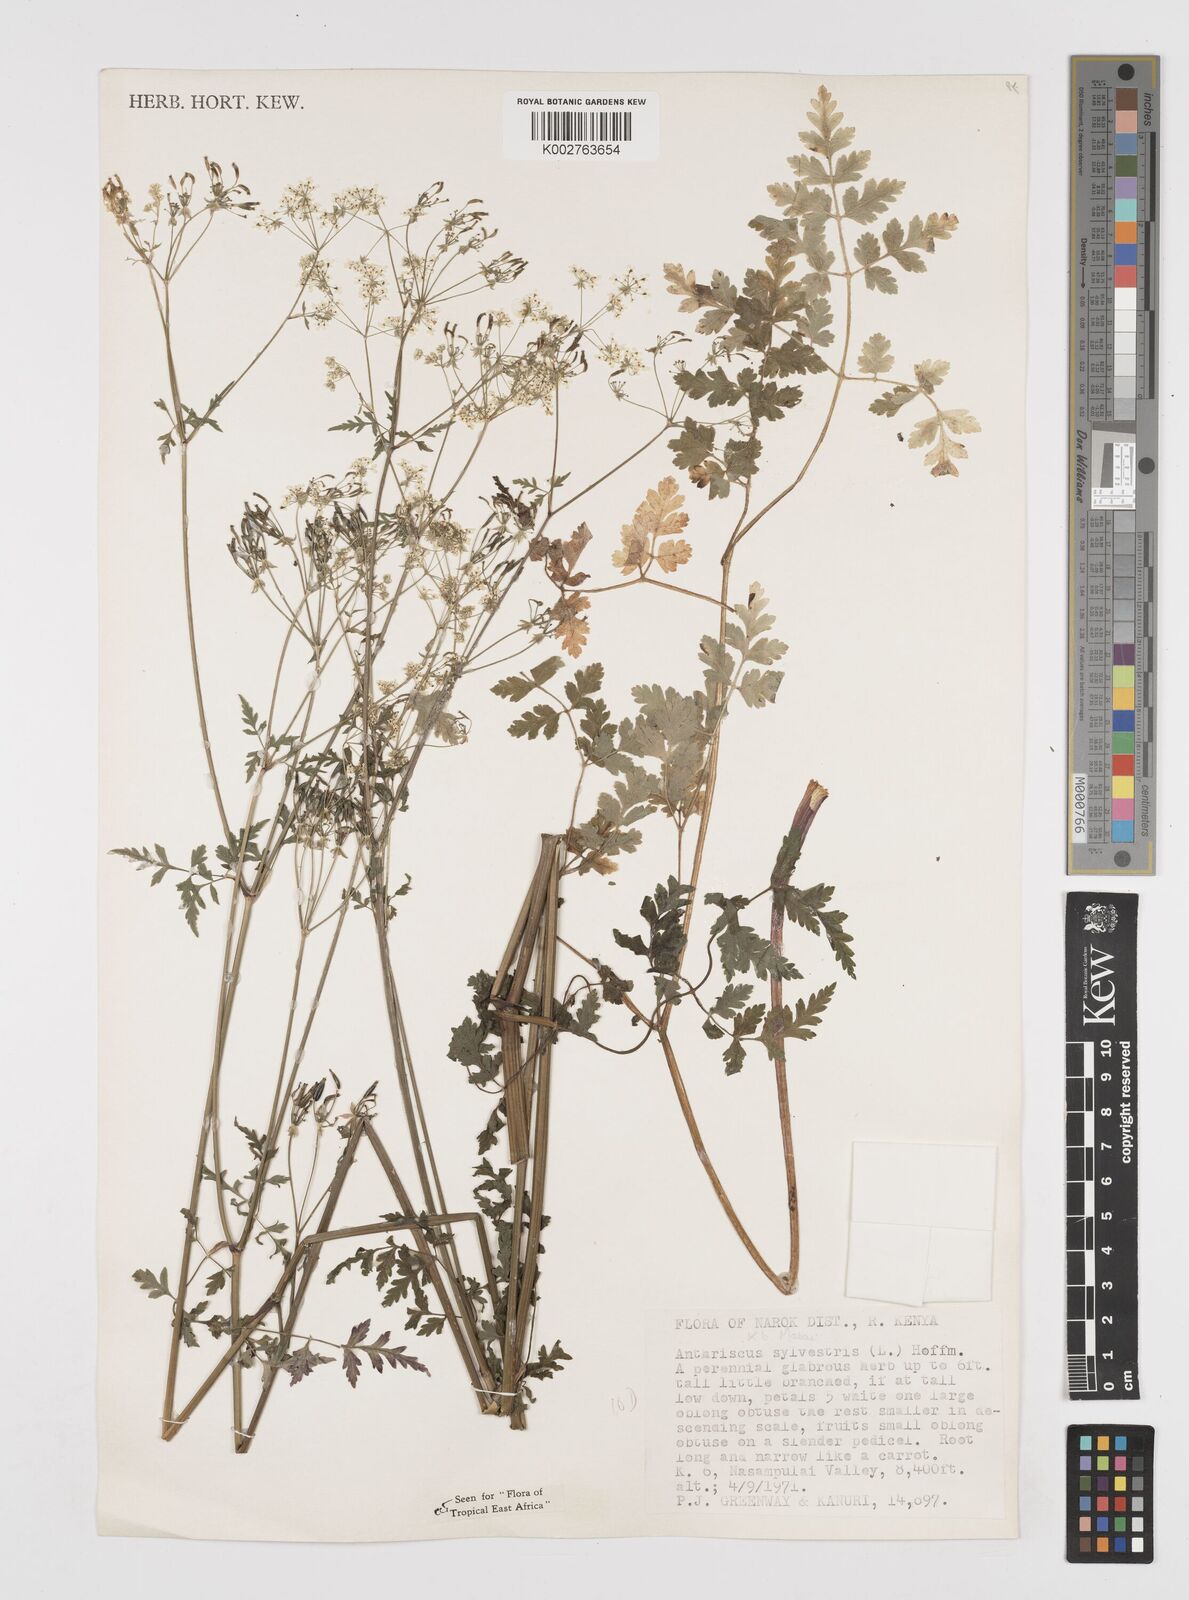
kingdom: Plantae
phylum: Tracheophyta
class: Magnoliopsida
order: Apiales
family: Apiaceae
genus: Anthriscus
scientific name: Anthriscus sylvestris
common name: Cow parsley
